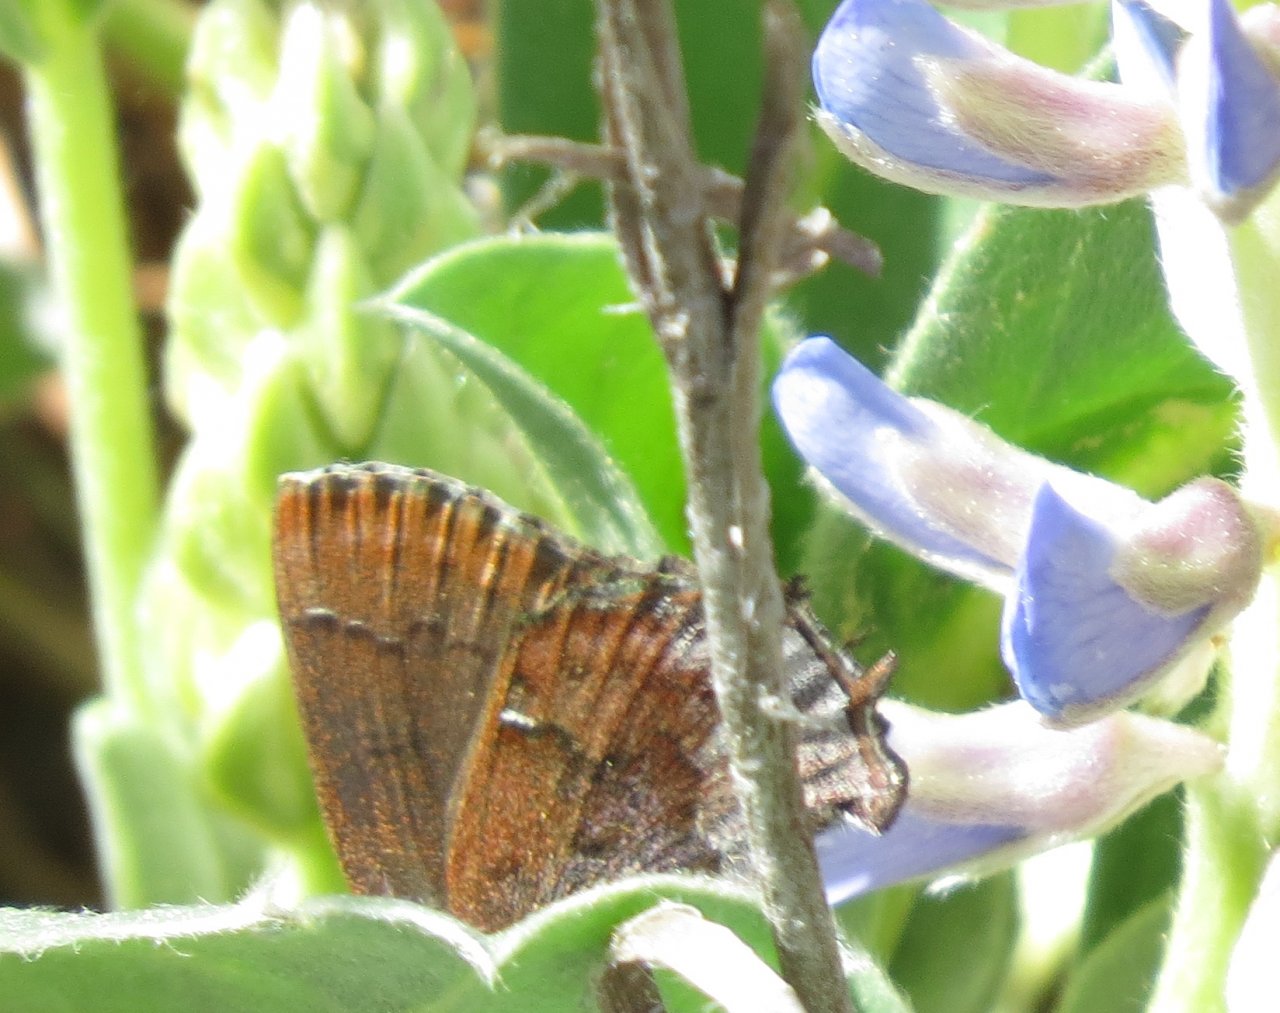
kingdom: Animalia
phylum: Arthropoda
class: Insecta
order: Lepidoptera
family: Lycaenidae
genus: Thecla
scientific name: Thecla irus
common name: Frosted Elfin
